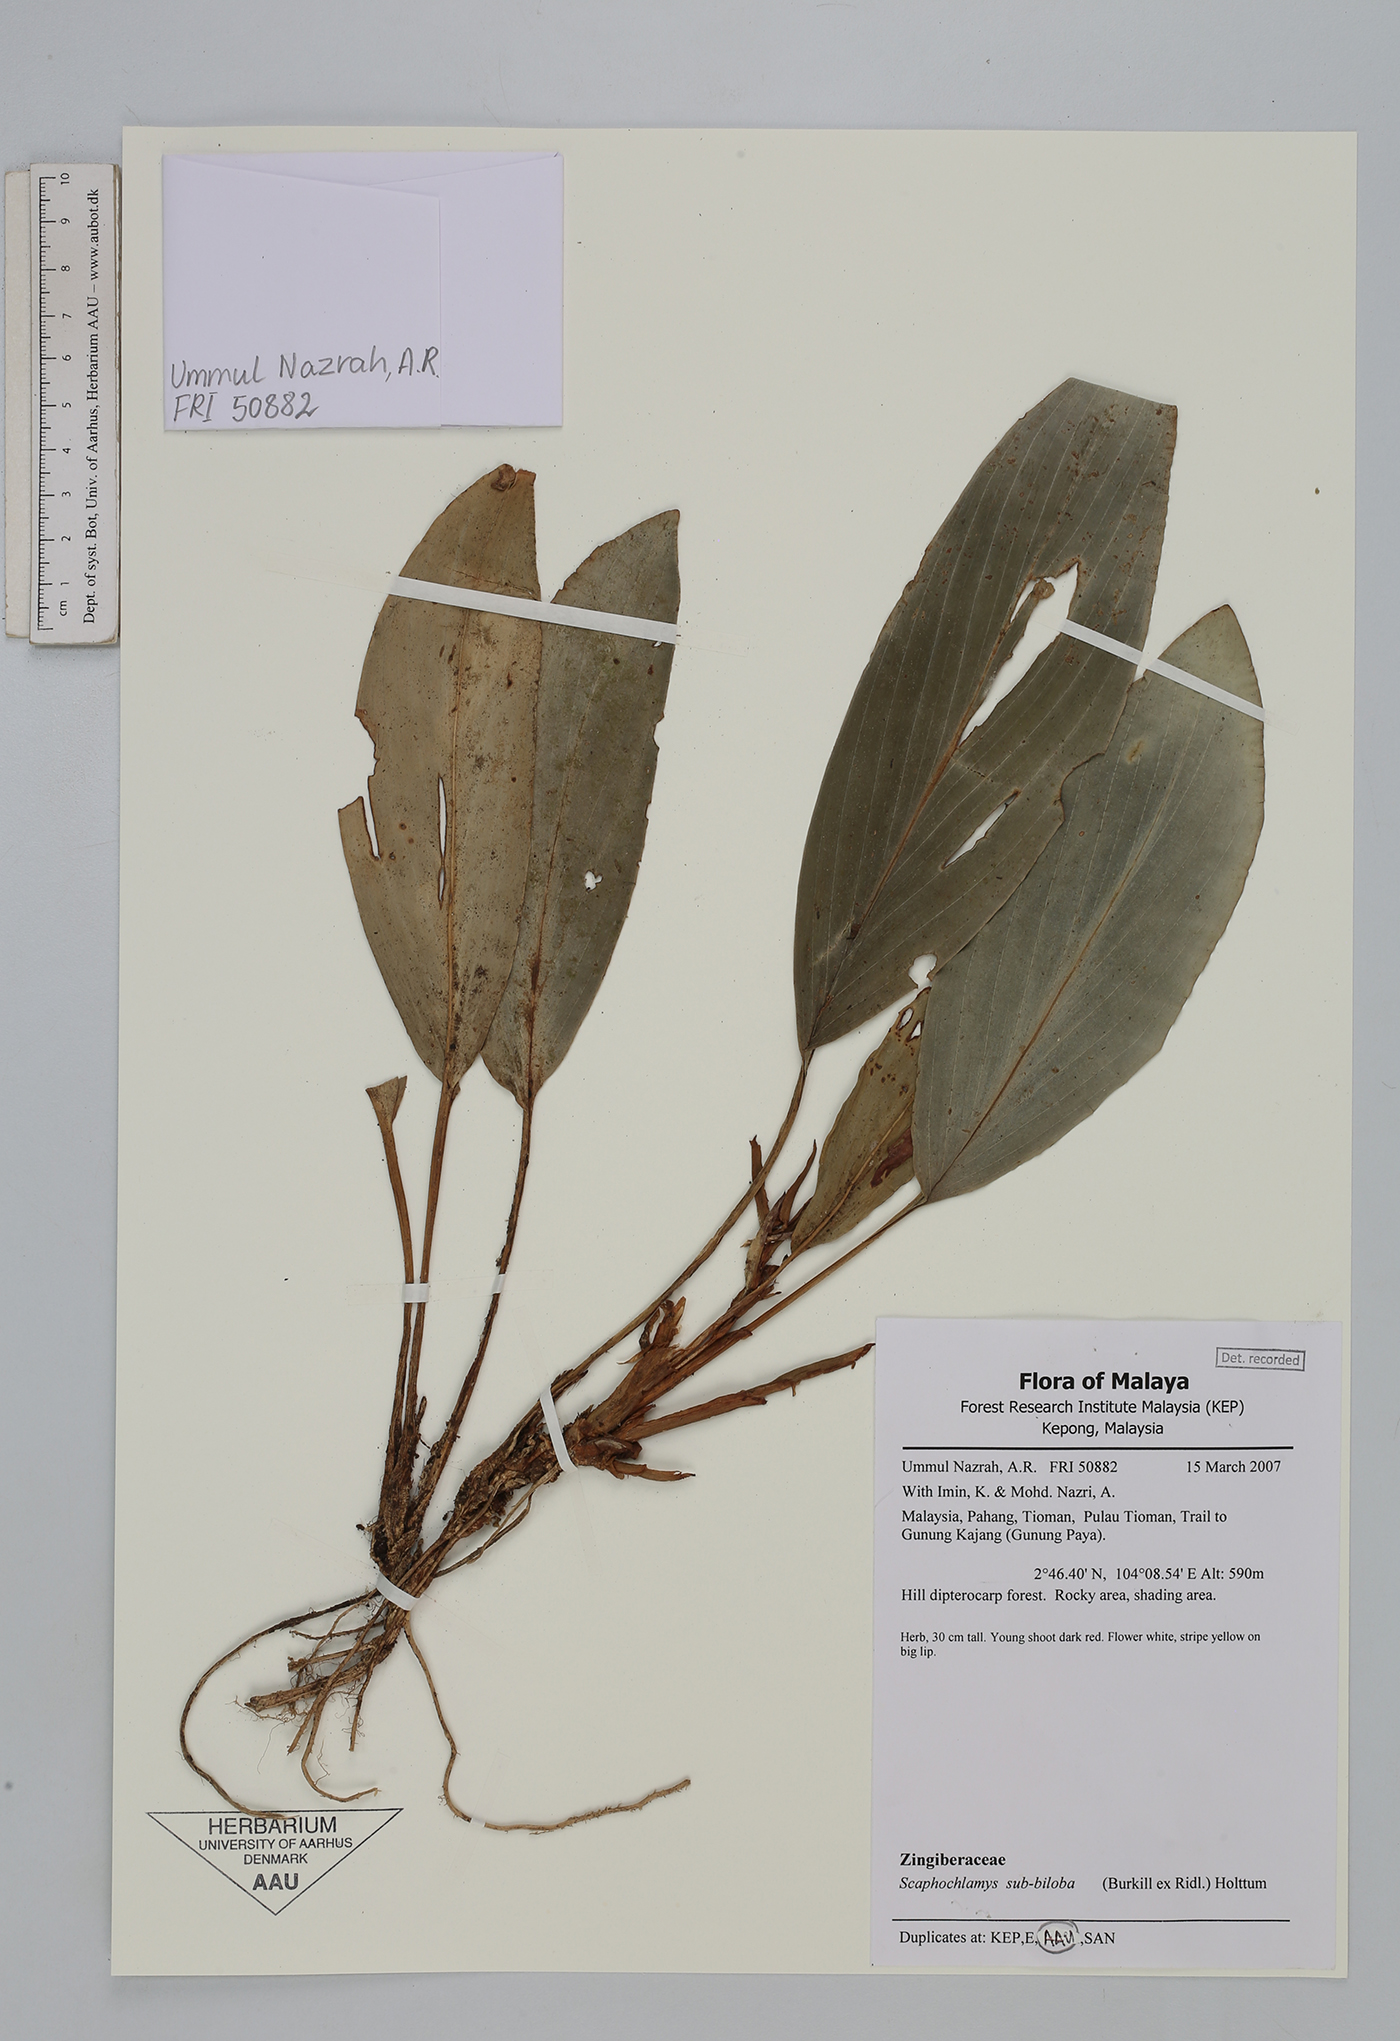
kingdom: Plantae
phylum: Tracheophyta
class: Liliopsida
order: Zingiberales
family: Zingiberaceae
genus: Scaphochlamys
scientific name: Scaphochlamys subbiloba
